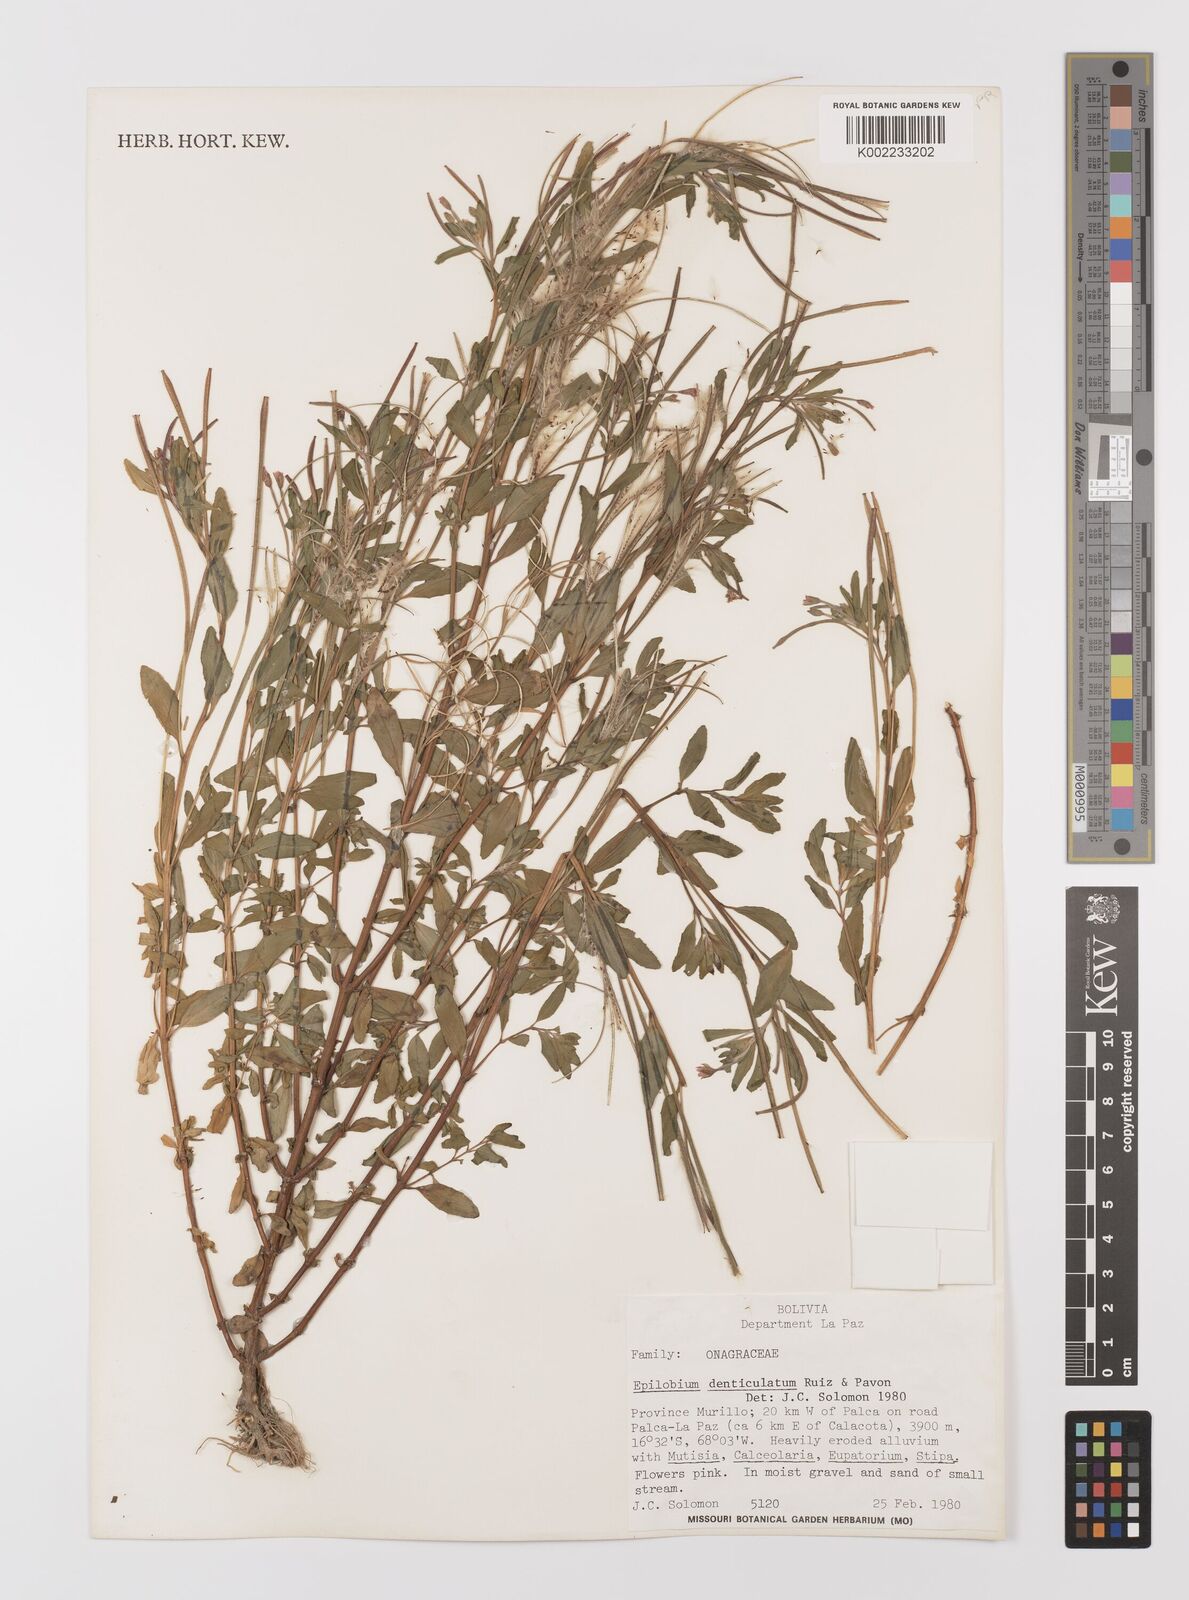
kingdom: Plantae
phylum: Tracheophyta
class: Magnoliopsida
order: Myrtales
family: Onagraceae
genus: Epilobium
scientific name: Epilobium denticulatum
